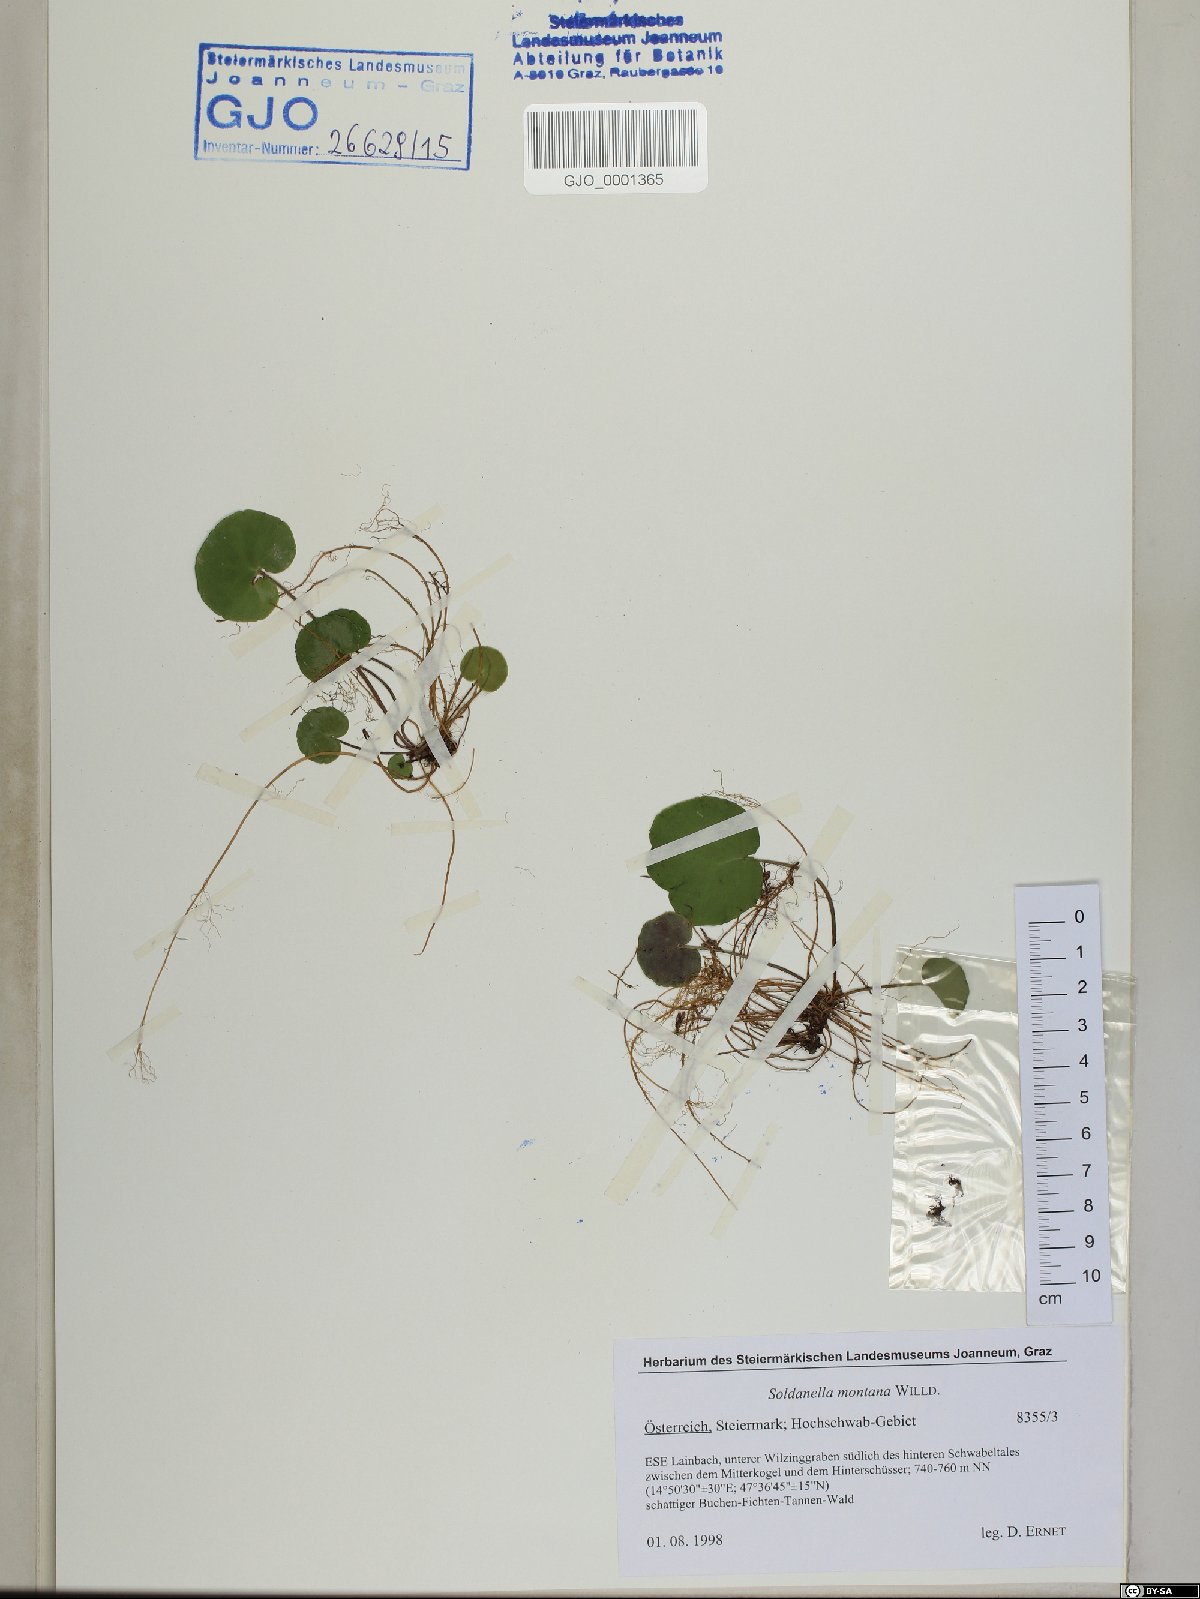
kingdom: Plantae
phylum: Tracheophyta
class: Magnoliopsida
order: Ericales
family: Primulaceae
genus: Soldanella
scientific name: Soldanella montana
